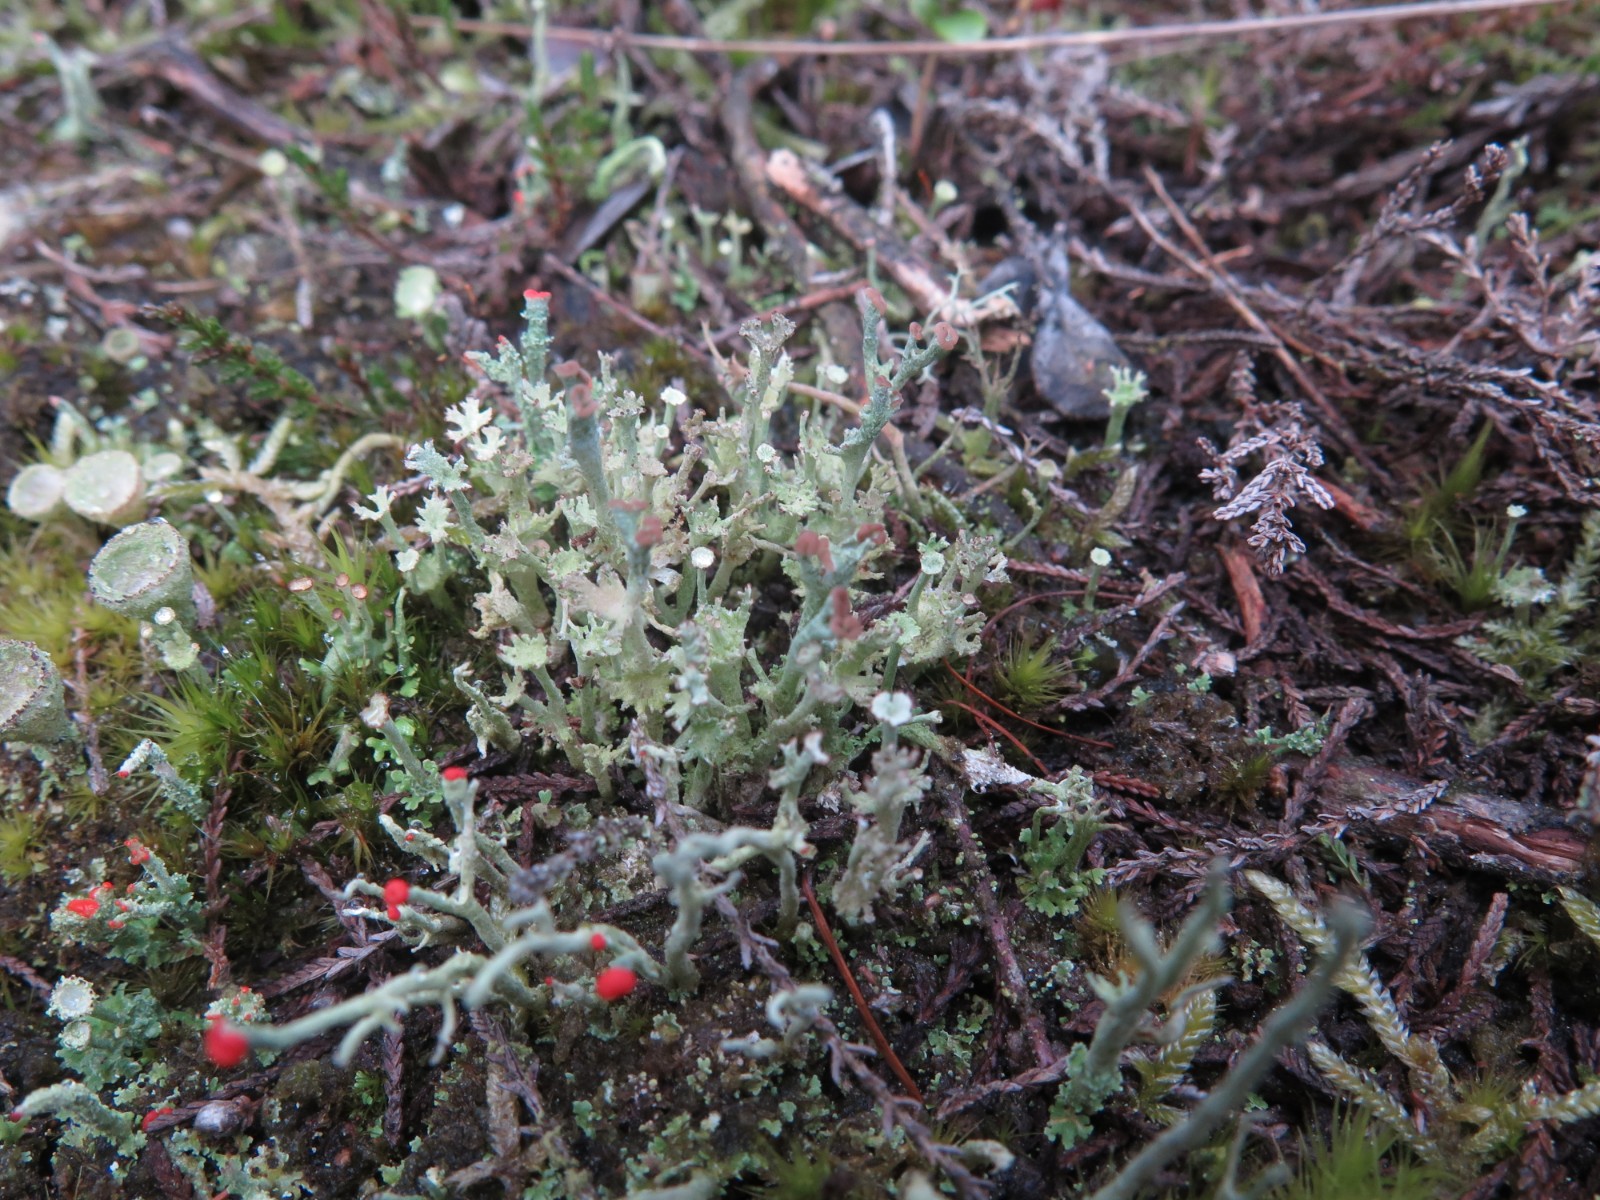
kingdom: Fungi
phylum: Ascomycota
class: Lecanoromycetes
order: Lecanorales
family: Cladoniaceae
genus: Cladonia
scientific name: Cladonia ramulosa
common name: kliddet bægerlav
